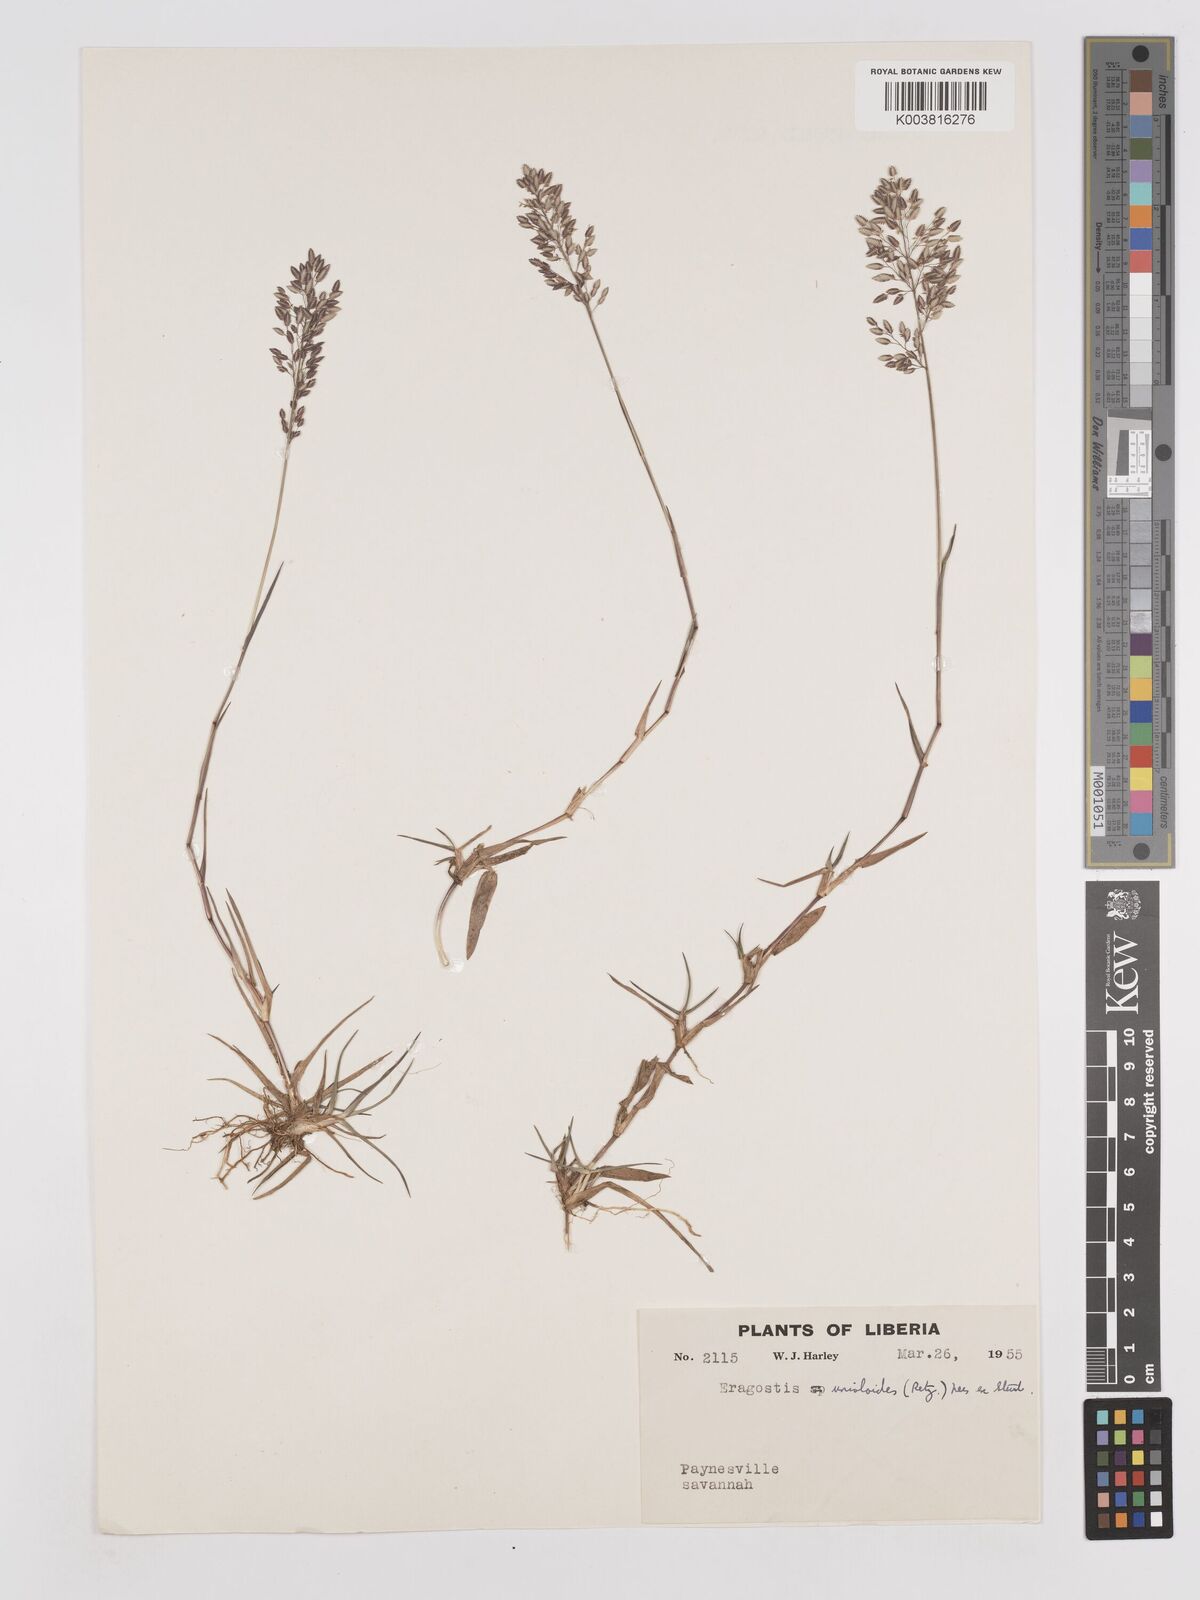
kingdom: Plantae
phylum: Tracheophyta
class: Liliopsida
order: Poales
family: Poaceae
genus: Eragrostis
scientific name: Eragrostis unioloides
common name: Chinese lovegrass
